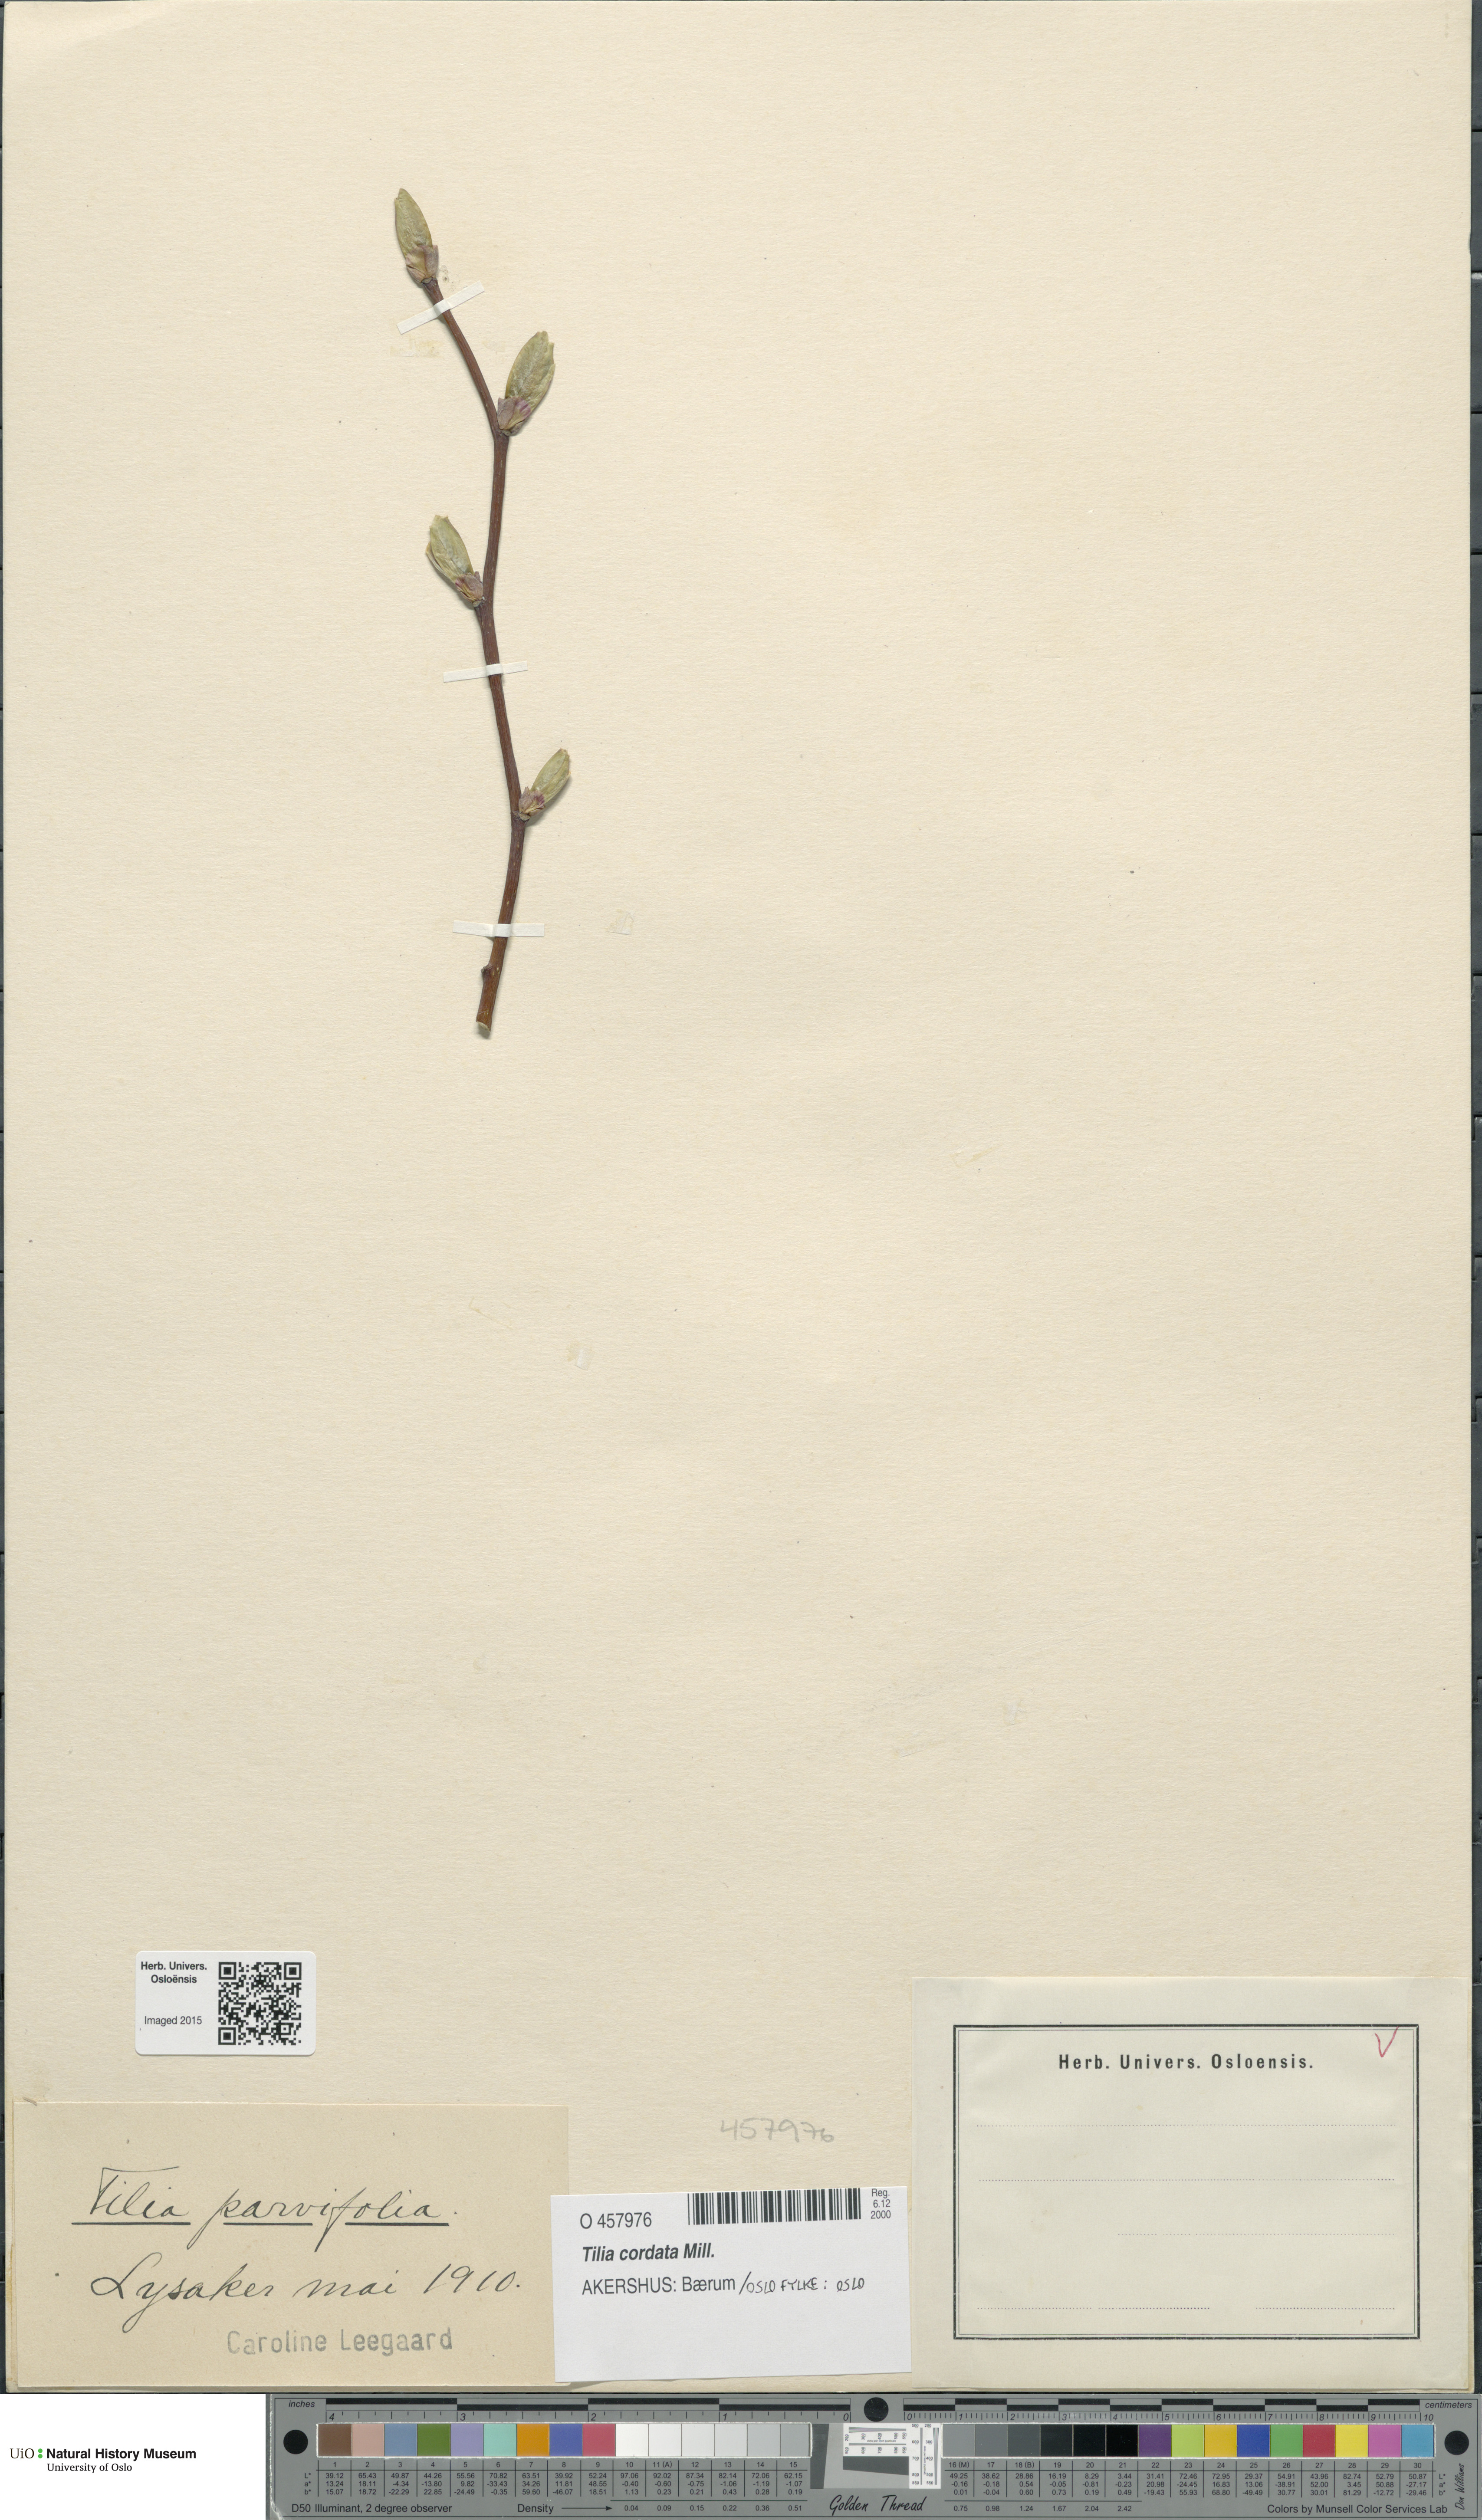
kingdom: Plantae
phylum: Tracheophyta
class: Magnoliopsida
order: Malvales
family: Malvaceae
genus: Tilia
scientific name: Tilia cordata
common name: Small-leaved lime
